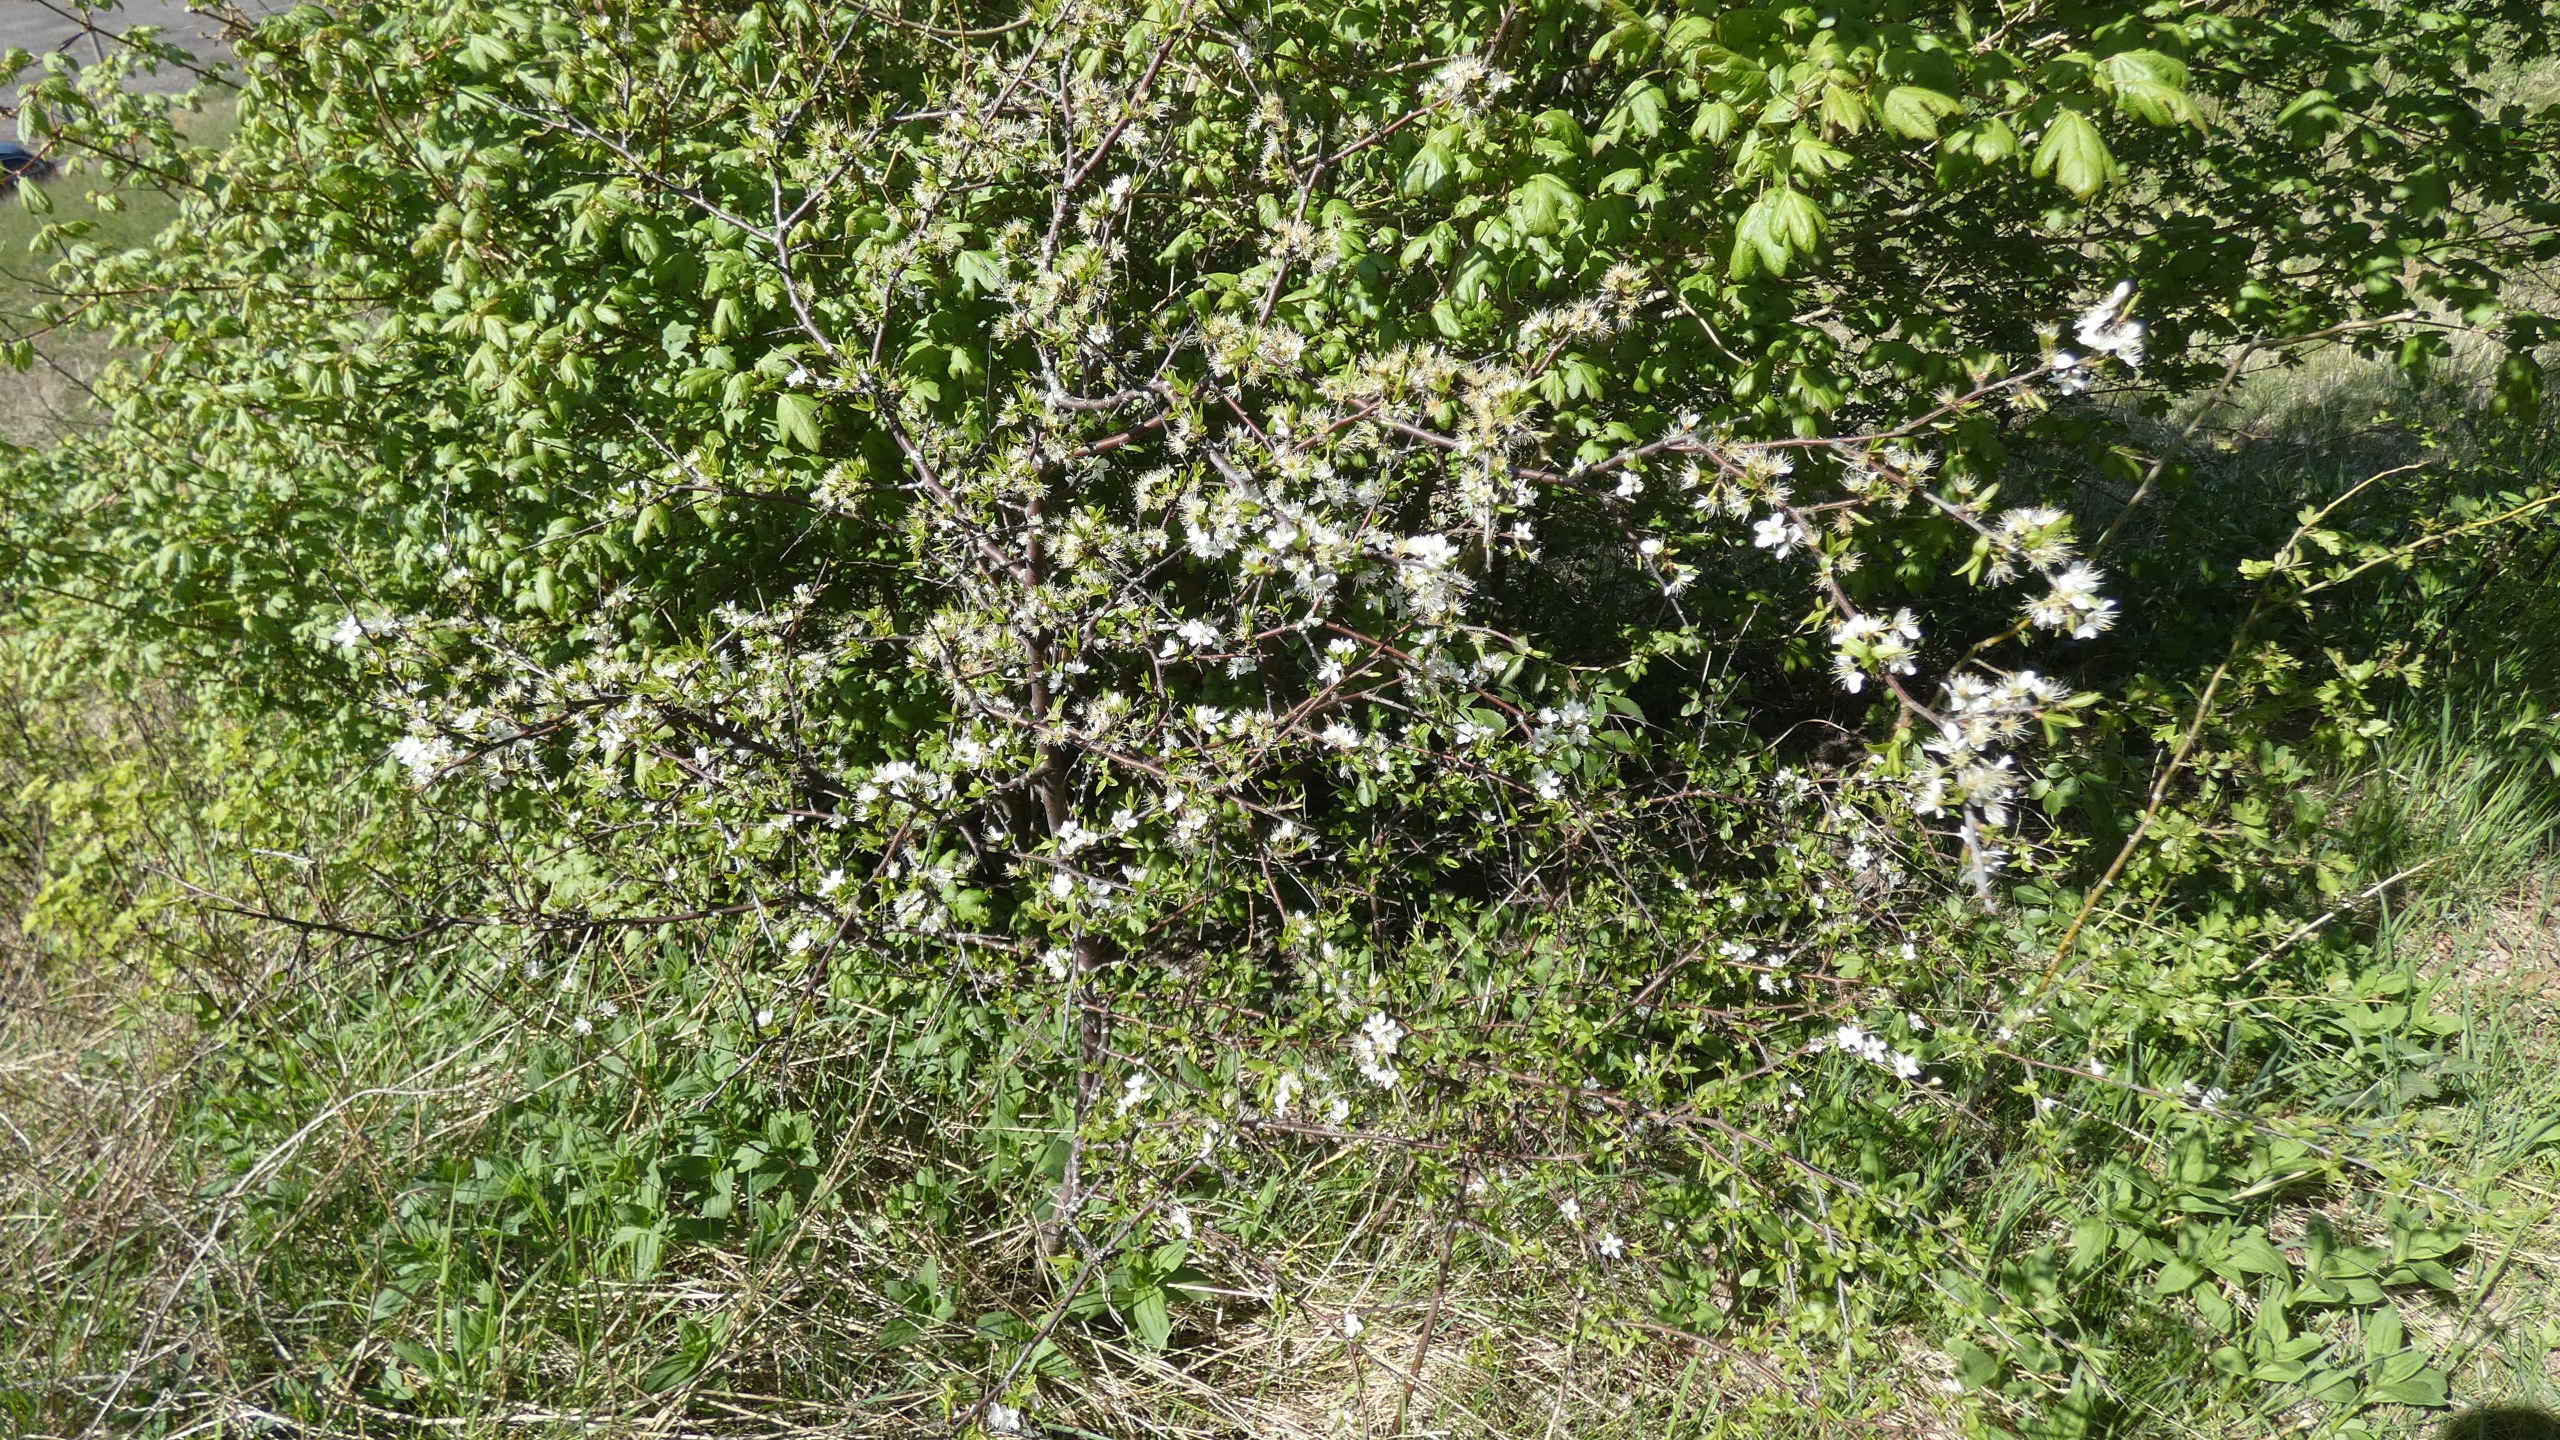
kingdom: Plantae
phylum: Tracheophyta
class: Magnoliopsida
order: Rosales
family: Rosaceae
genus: Prunus
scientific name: Prunus spinosa
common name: Slåen
